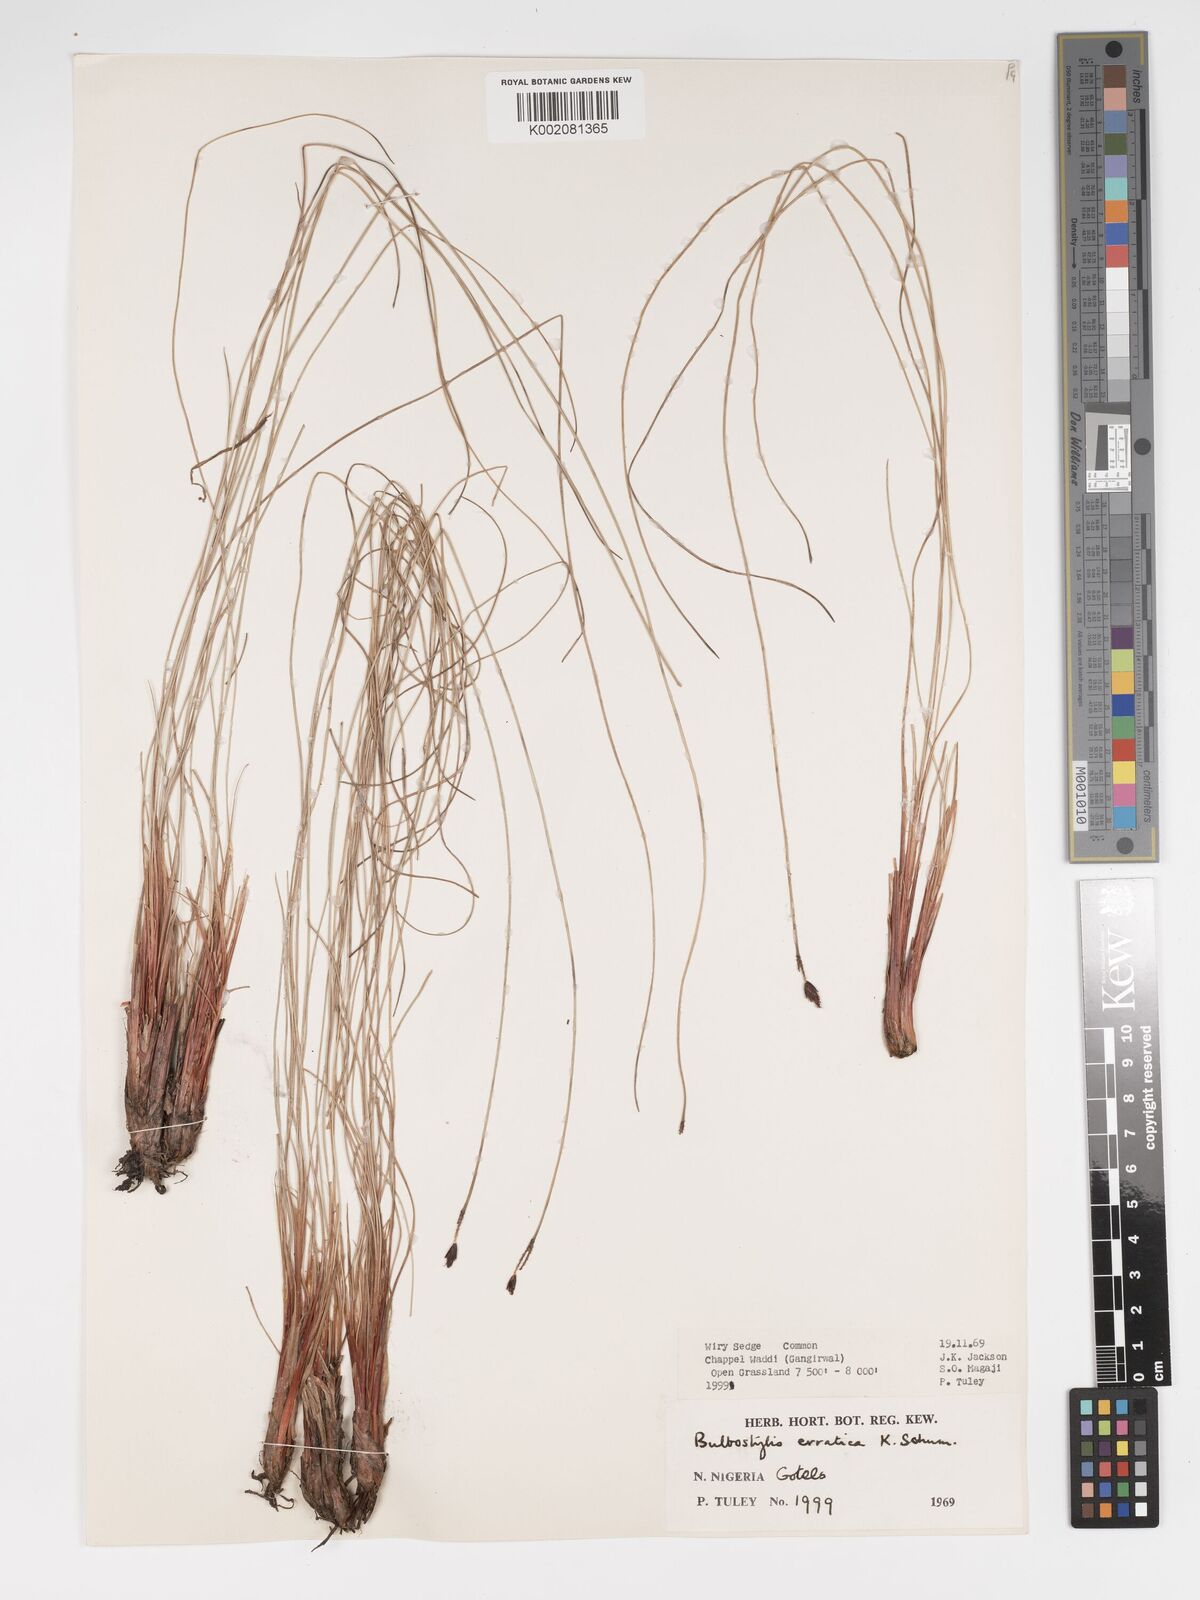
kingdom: Plantae
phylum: Tracheophyta
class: Liliopsida
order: Poales
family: Cyperaceae
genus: Bulbostylis
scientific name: Bulbostylis schoenoides
